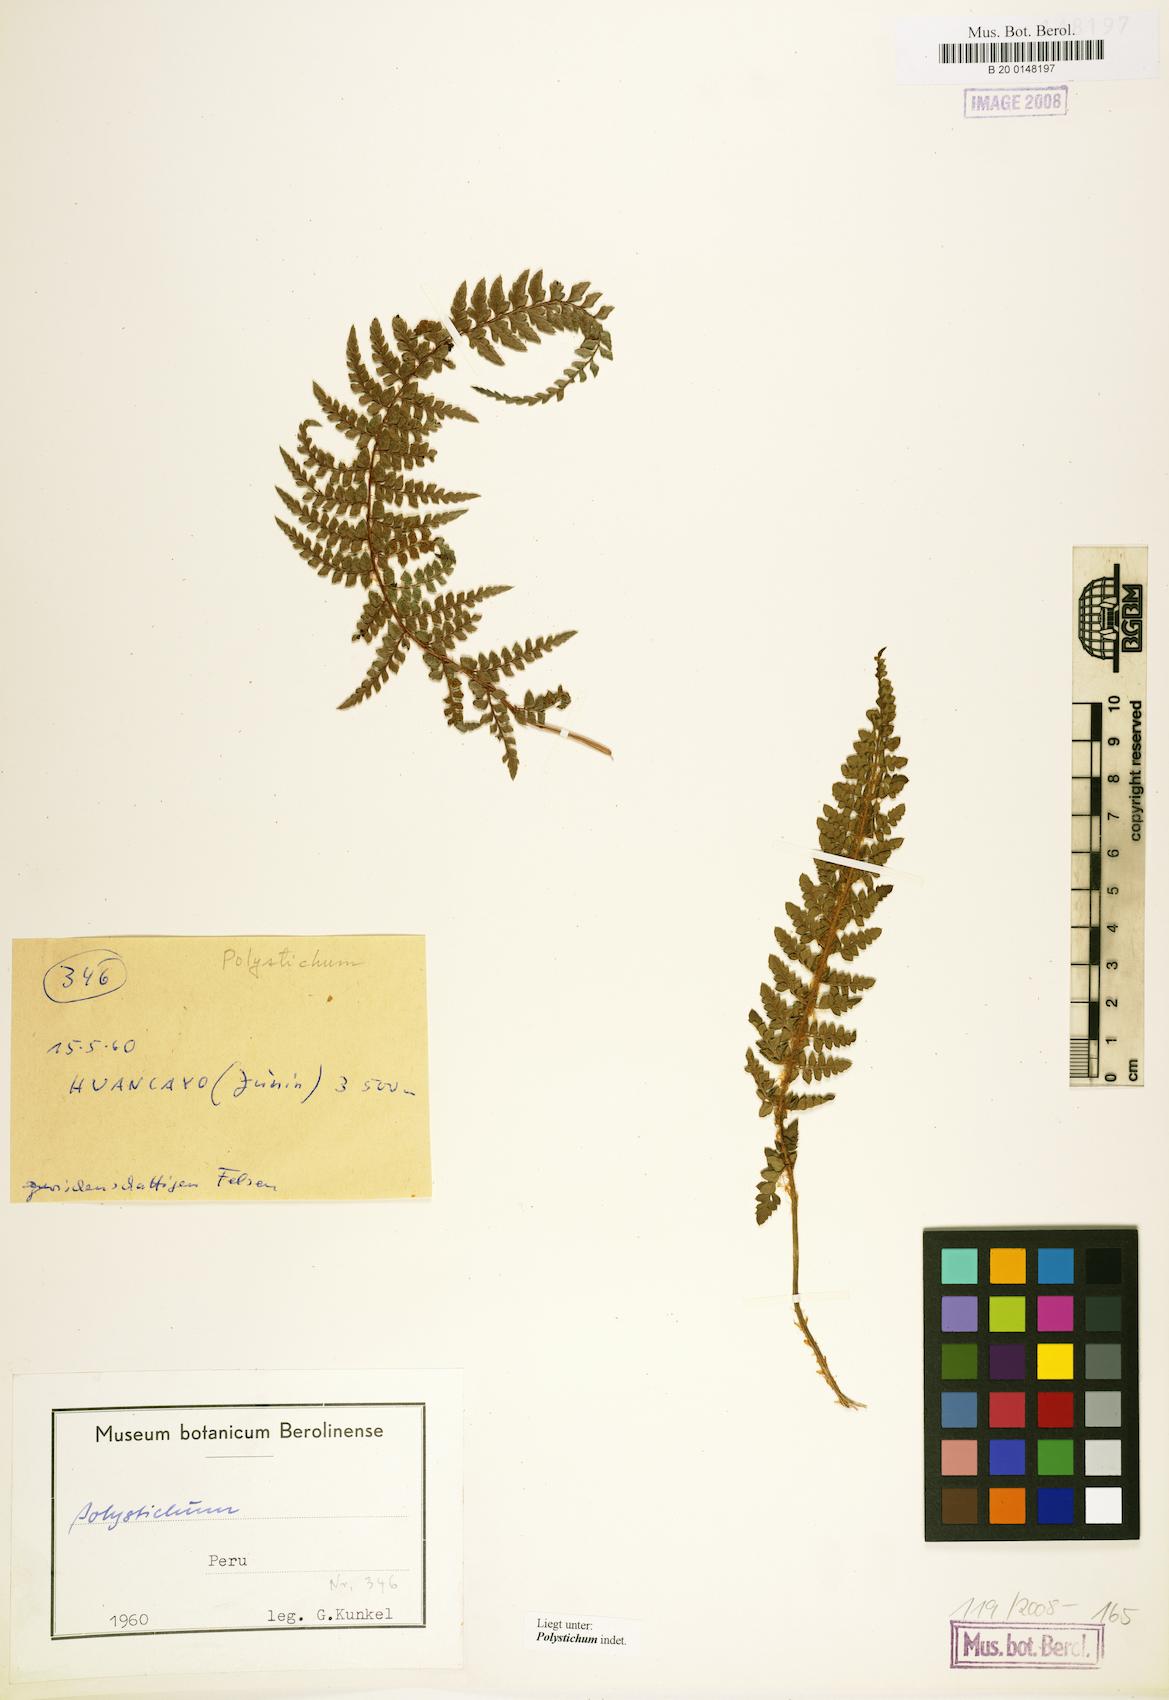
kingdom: Plantae
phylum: Tracheophyta
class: Polypodiopsida
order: Polypodiales
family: Dryopteridaceae
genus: Polystichum
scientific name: Polystichum
